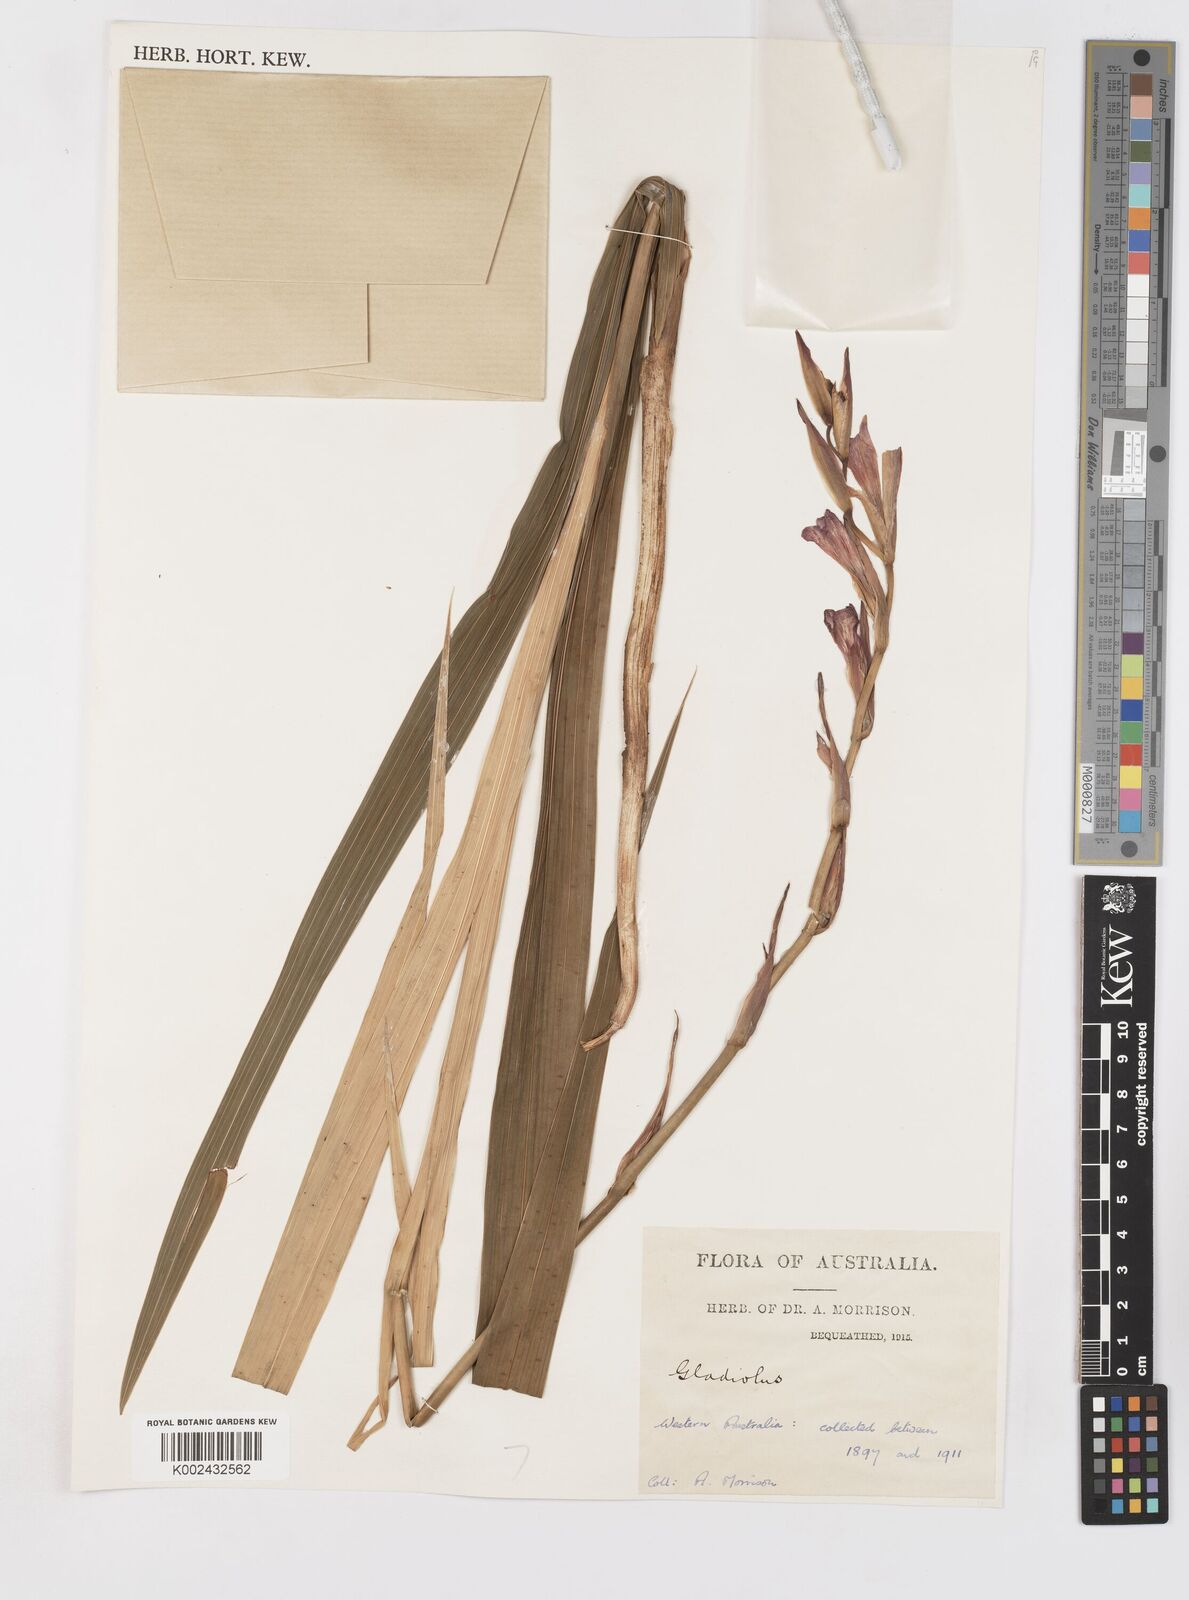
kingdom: Plantae
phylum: Tracheophyta
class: Liliopsida
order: Asparagales
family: Iridaceae
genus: Gladiolus
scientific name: Gladiolus
